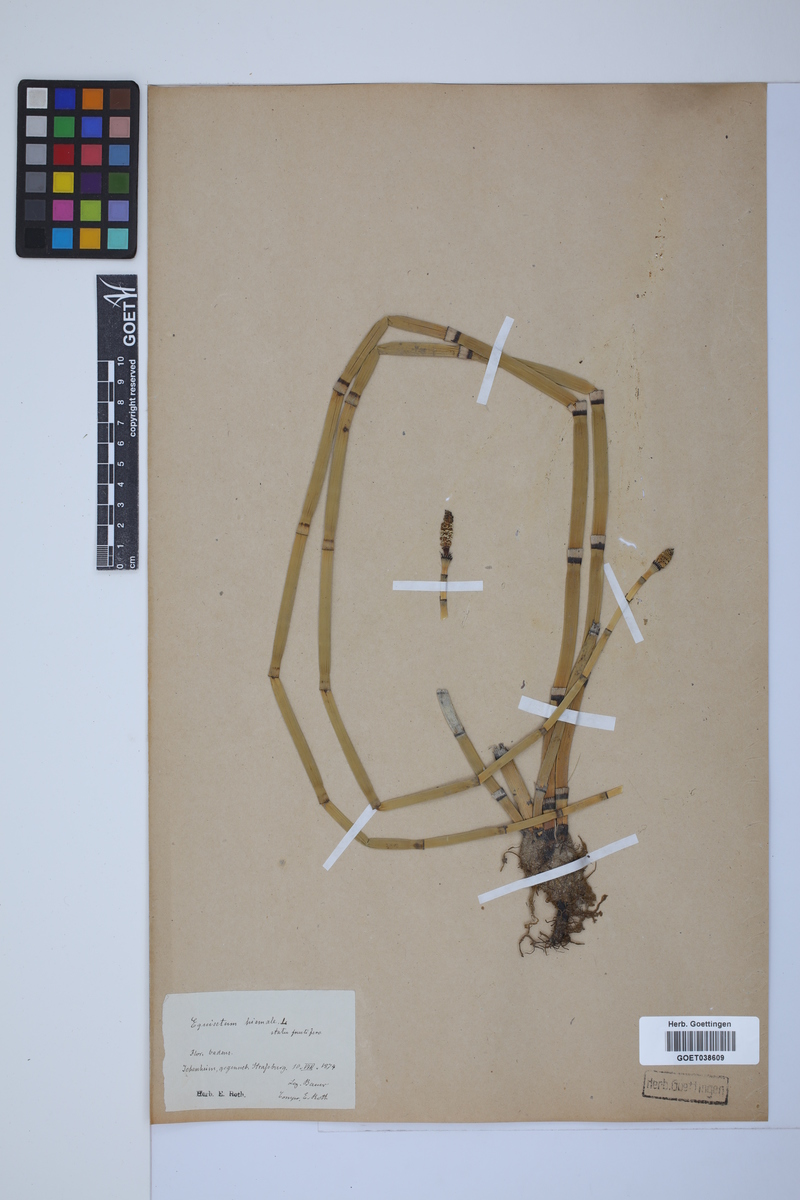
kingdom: Plantae
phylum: Tracheophyta
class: Polypodiopsida
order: Equisetales
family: Equisetaceae
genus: Equisetum
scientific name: Equisetum hyemale
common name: Rough horsetail
